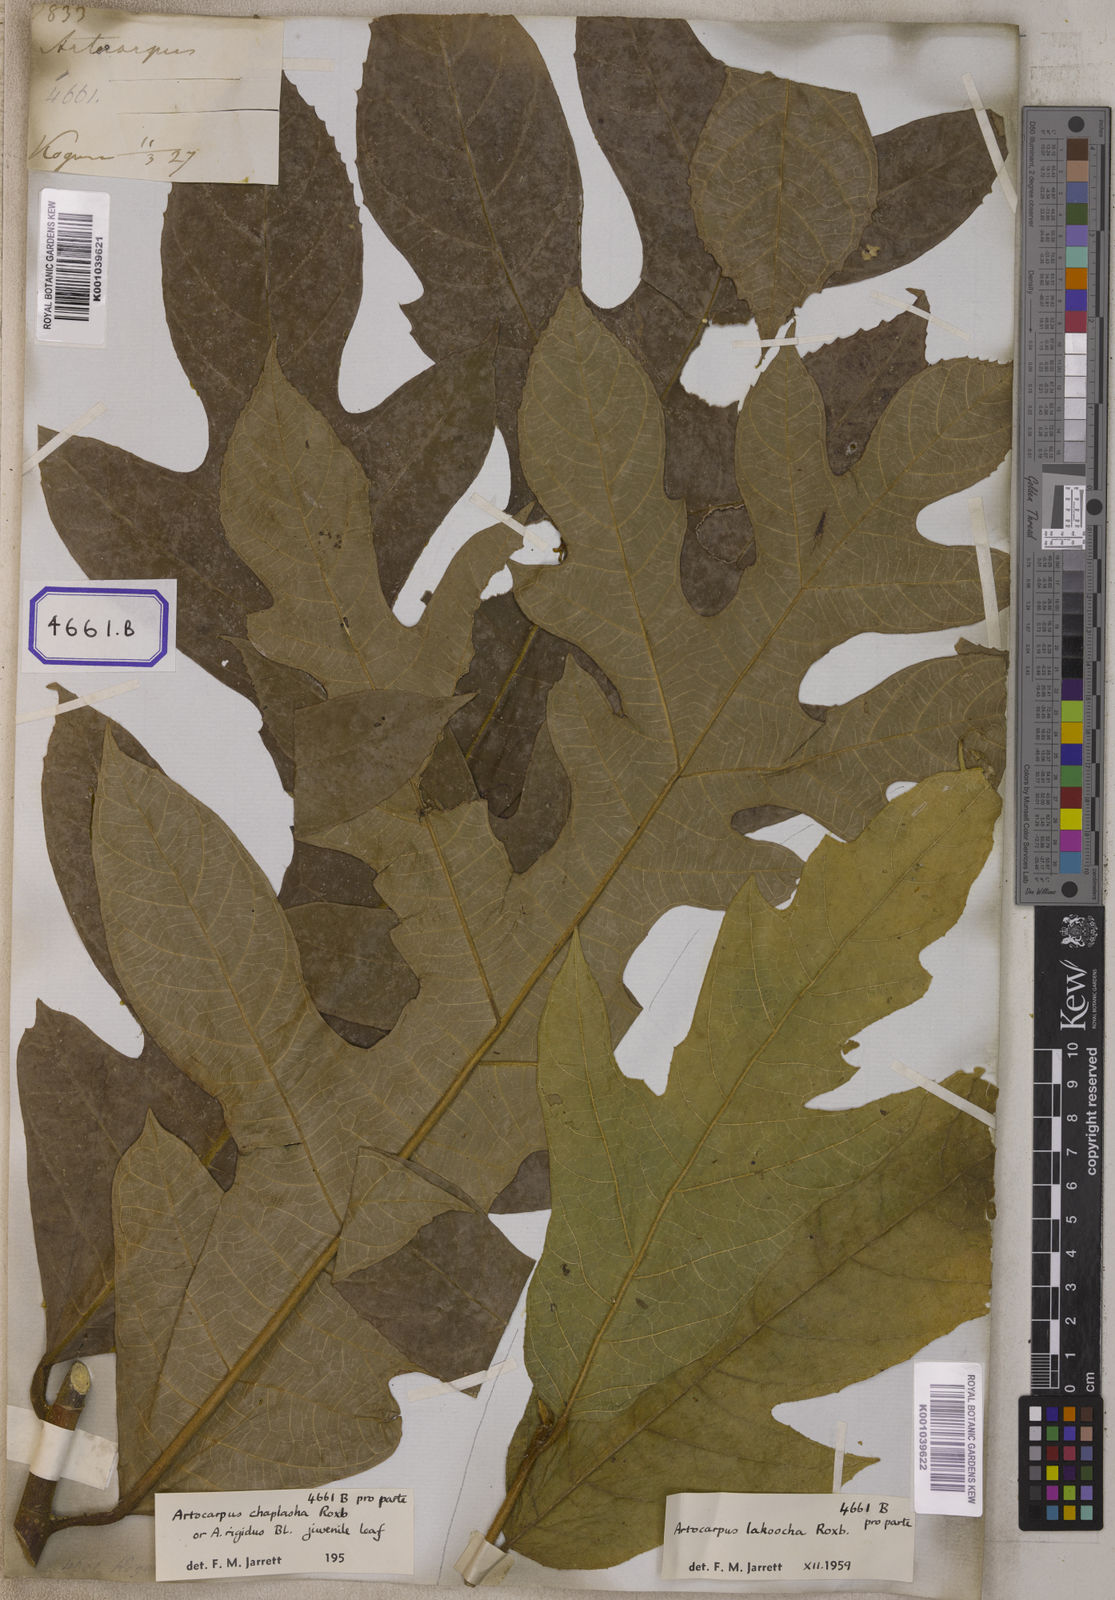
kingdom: Plantae
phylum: Tracheophyta
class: Magnoliopsida
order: Rosales
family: Moraceae
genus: Artocarpus
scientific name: Artocarpus lacucha
